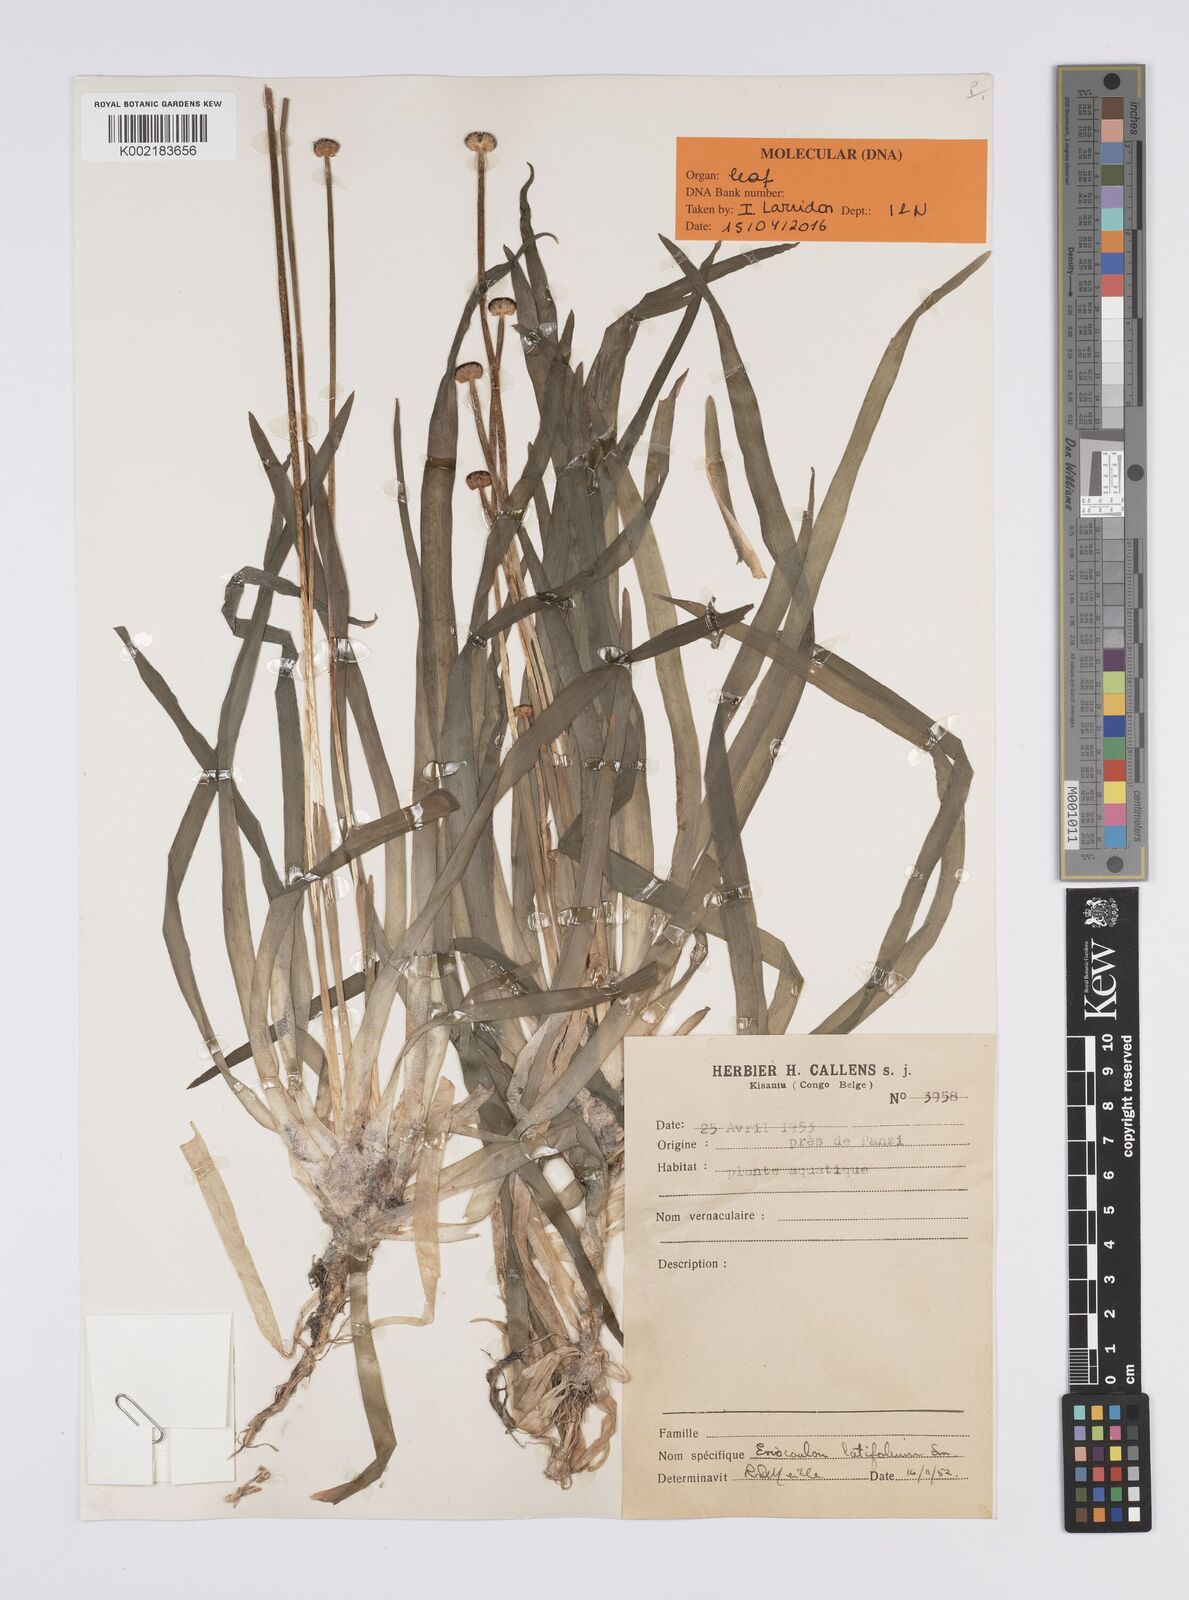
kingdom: Plantae
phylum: Tracheophyta
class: Liliopsida
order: Poales
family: Eriocaulaceae
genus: Eriocaulon
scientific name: Eriocaulon latifolium
